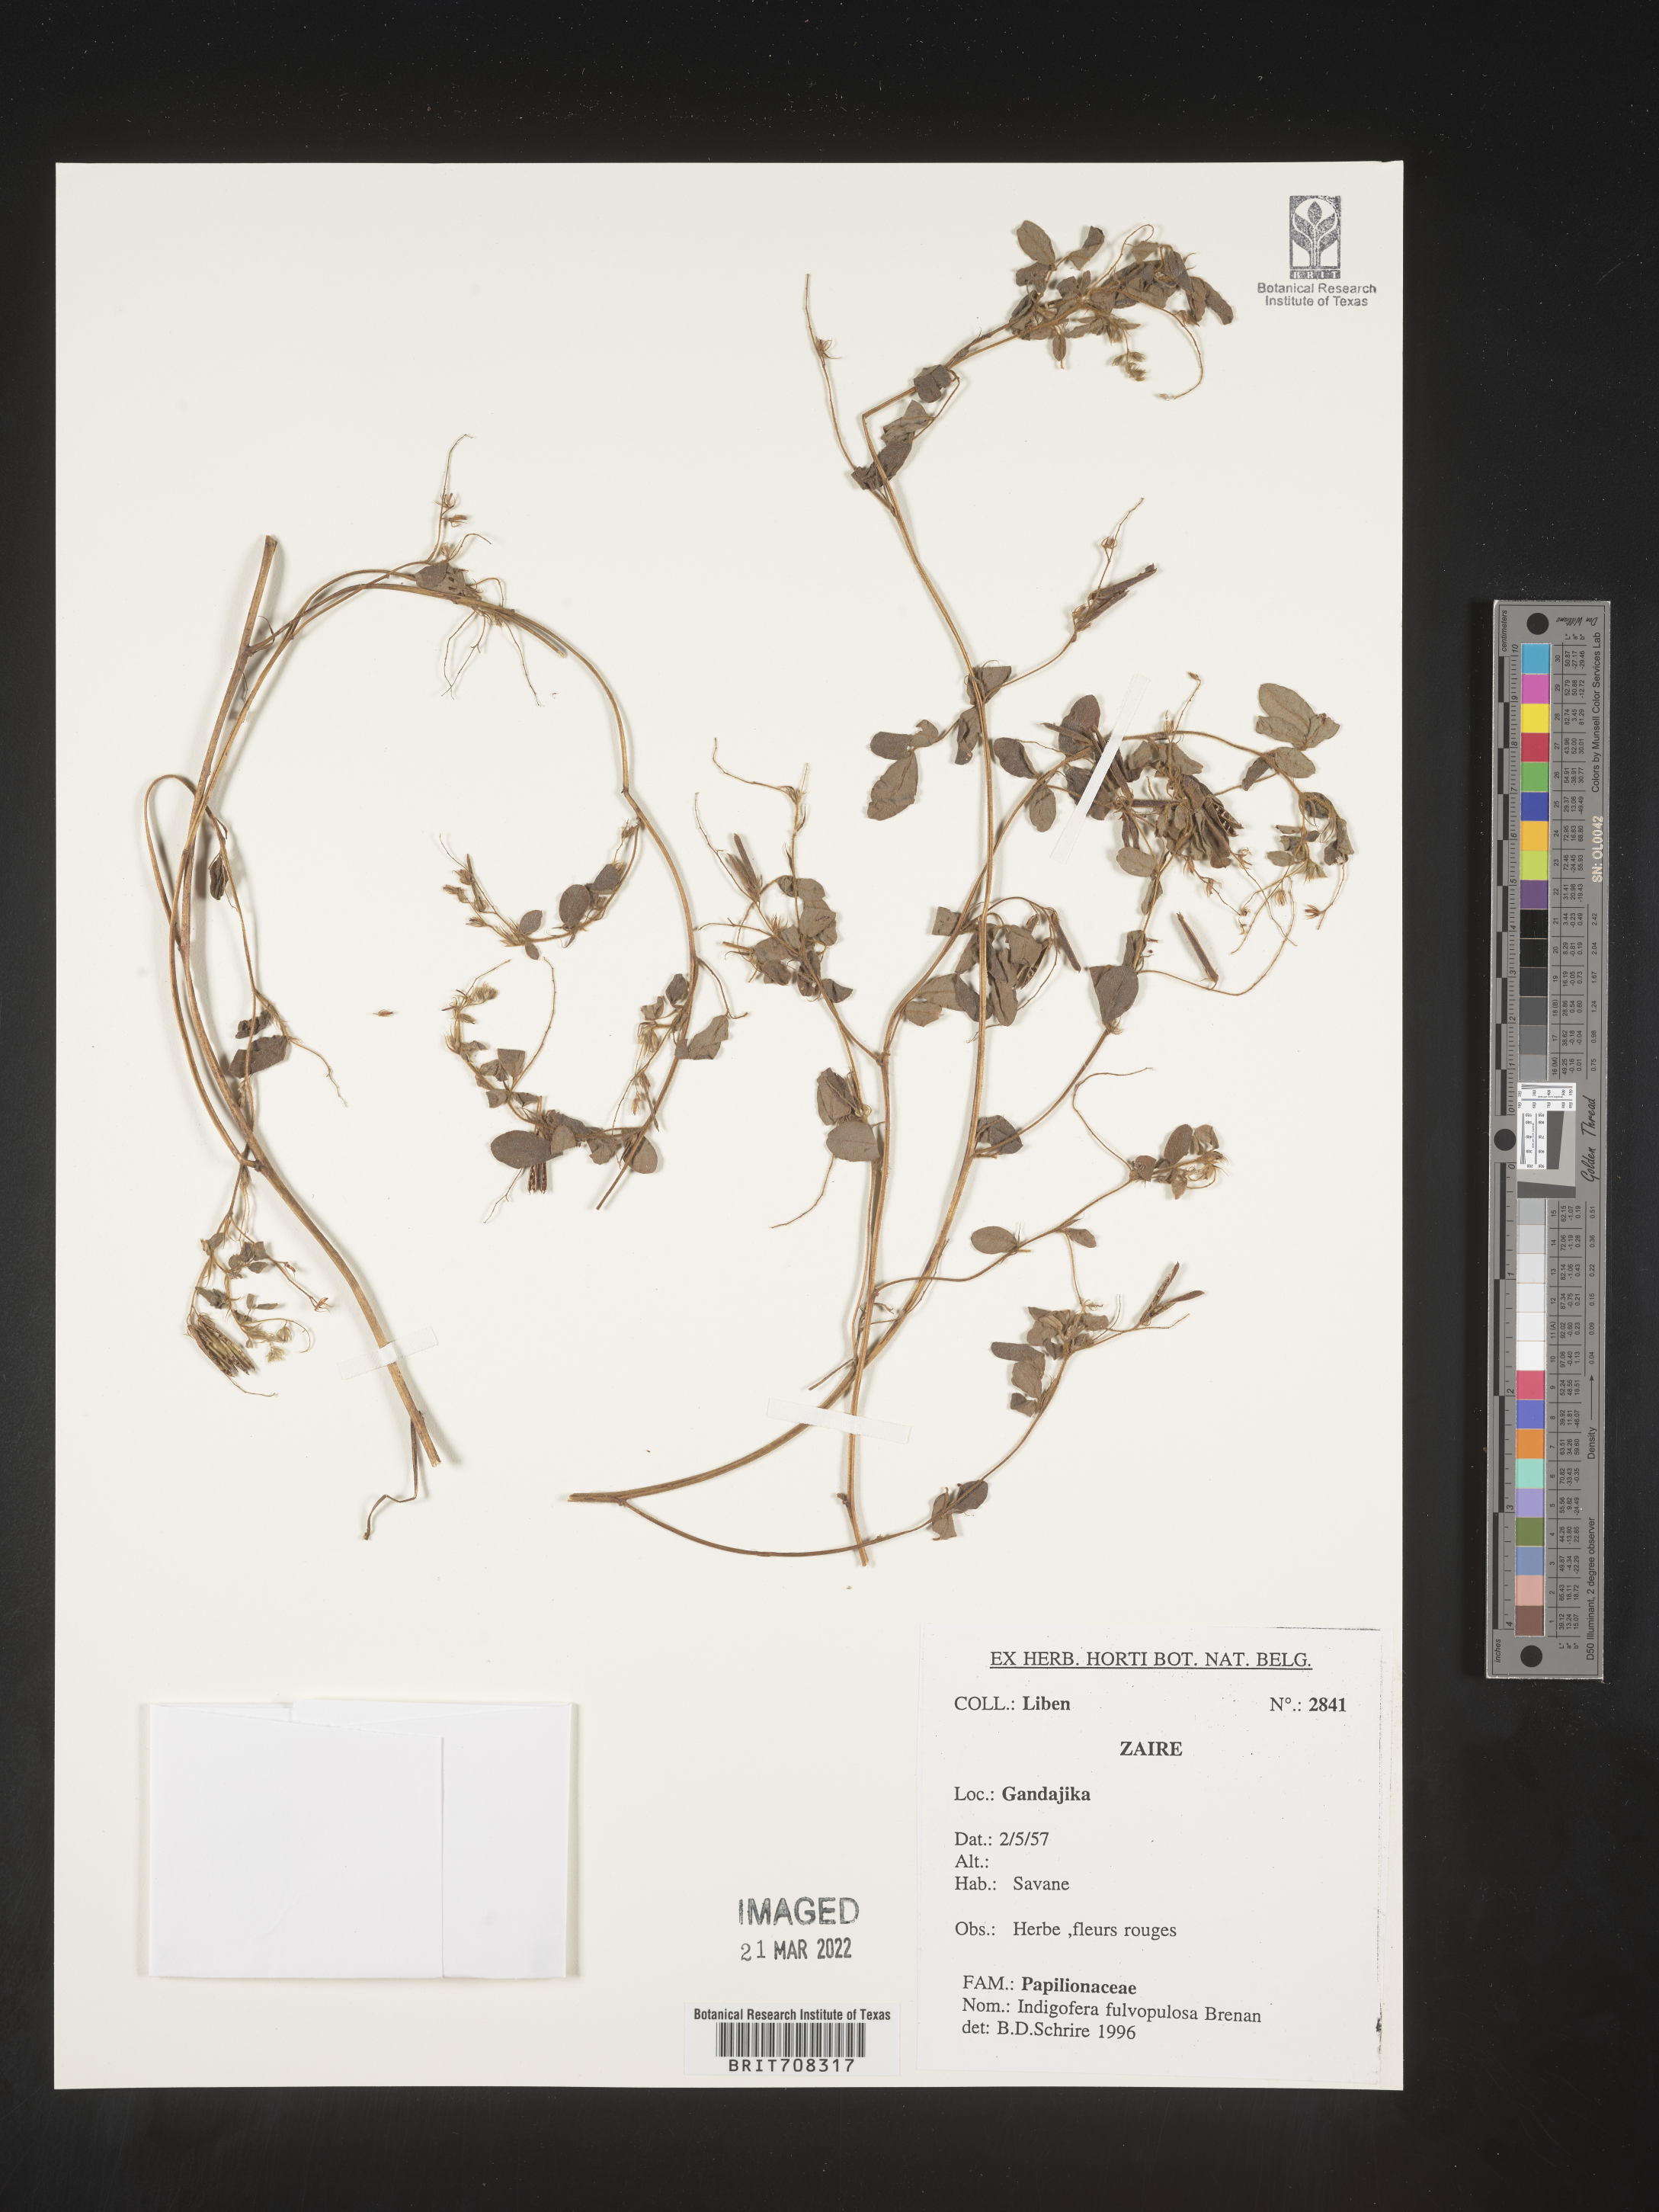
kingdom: Plantae
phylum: Tracheophyta
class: Magnoliopsida
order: Fabales
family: Fabaceae
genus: Indigofera
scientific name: Indigofera
